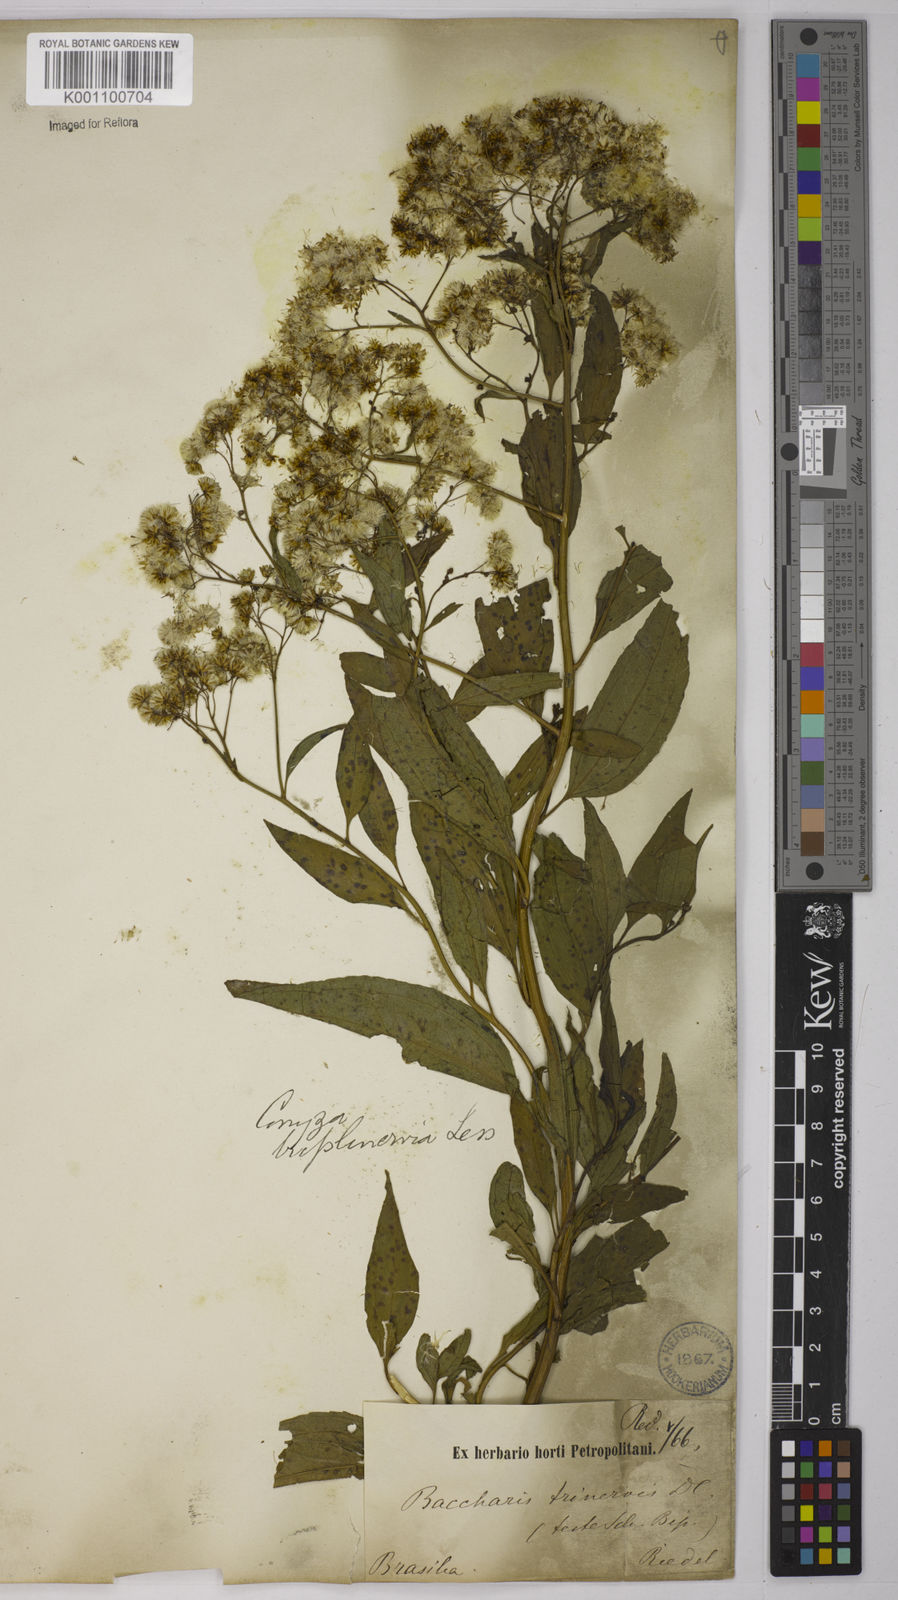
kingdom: Plantae
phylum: Tracheophyta
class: Magnoliopsida
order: Asterales
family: Asteraceae
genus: Archibaccharis
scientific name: Archibaccharis vulneraria
